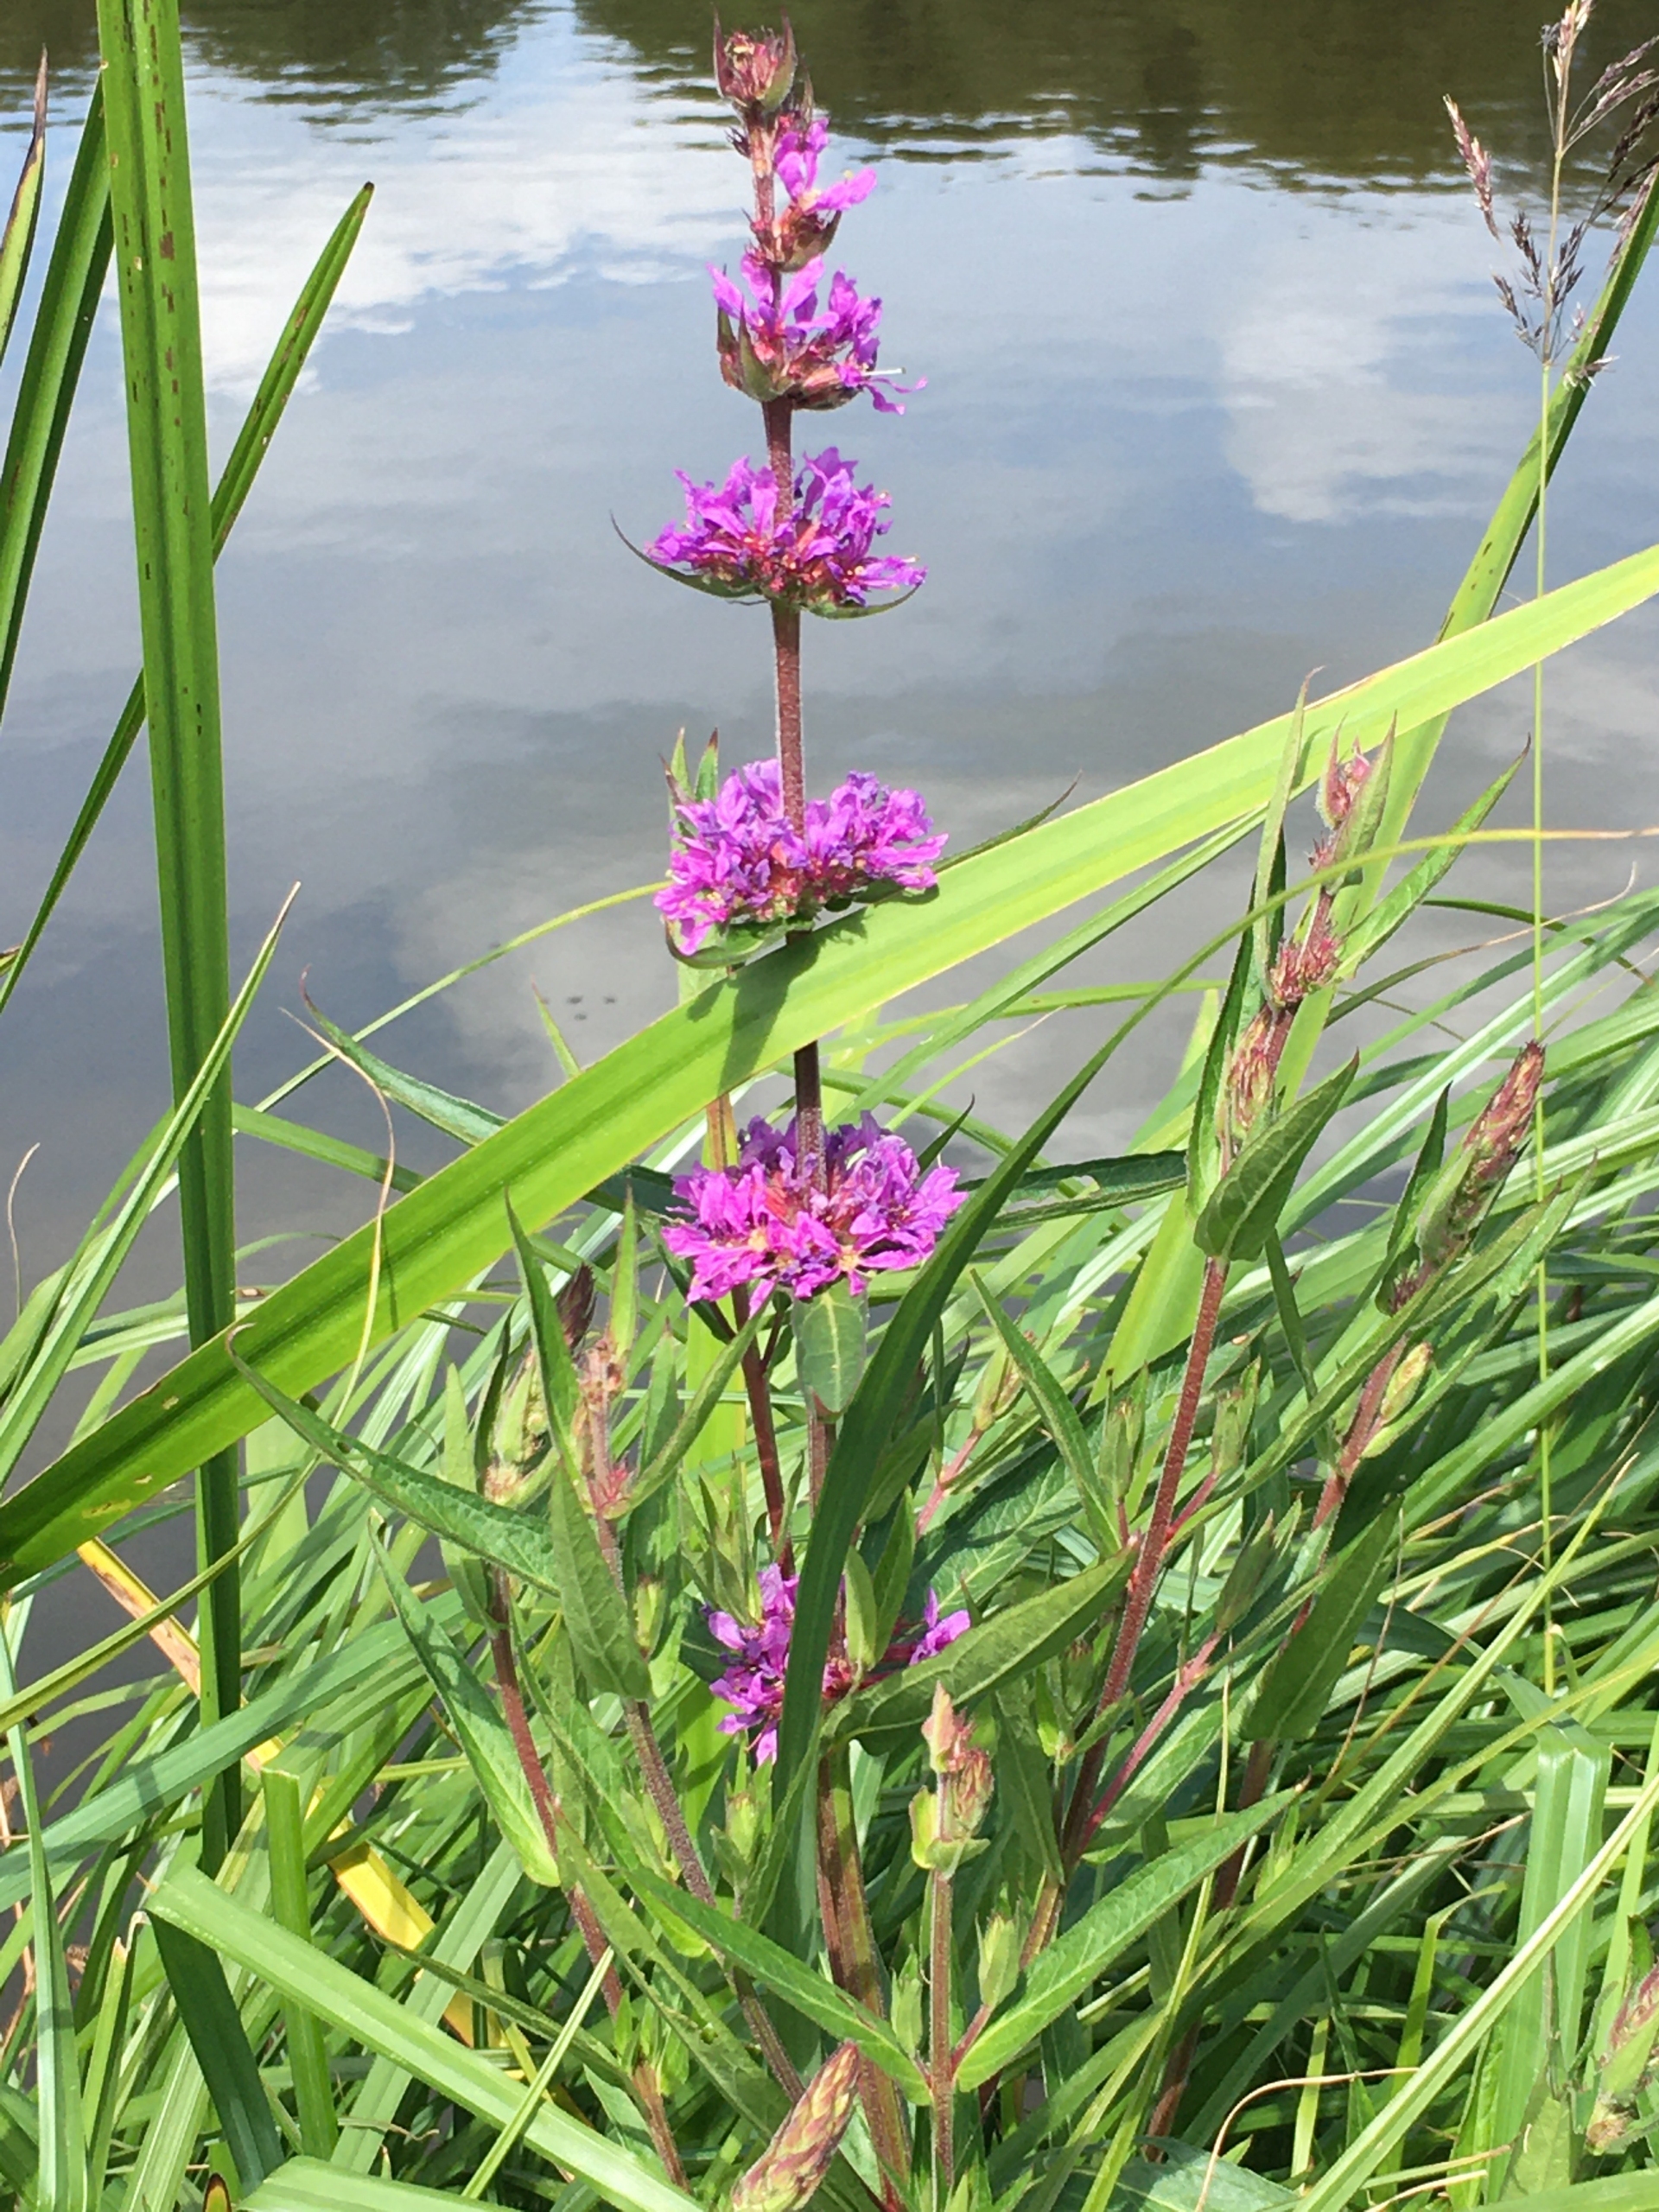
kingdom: Plantae
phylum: Tracheophyta
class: Magnoliopsida
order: Myrtales
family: Lythraceae
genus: Lythrum
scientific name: Lythrum salicaria
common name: Kattehale
